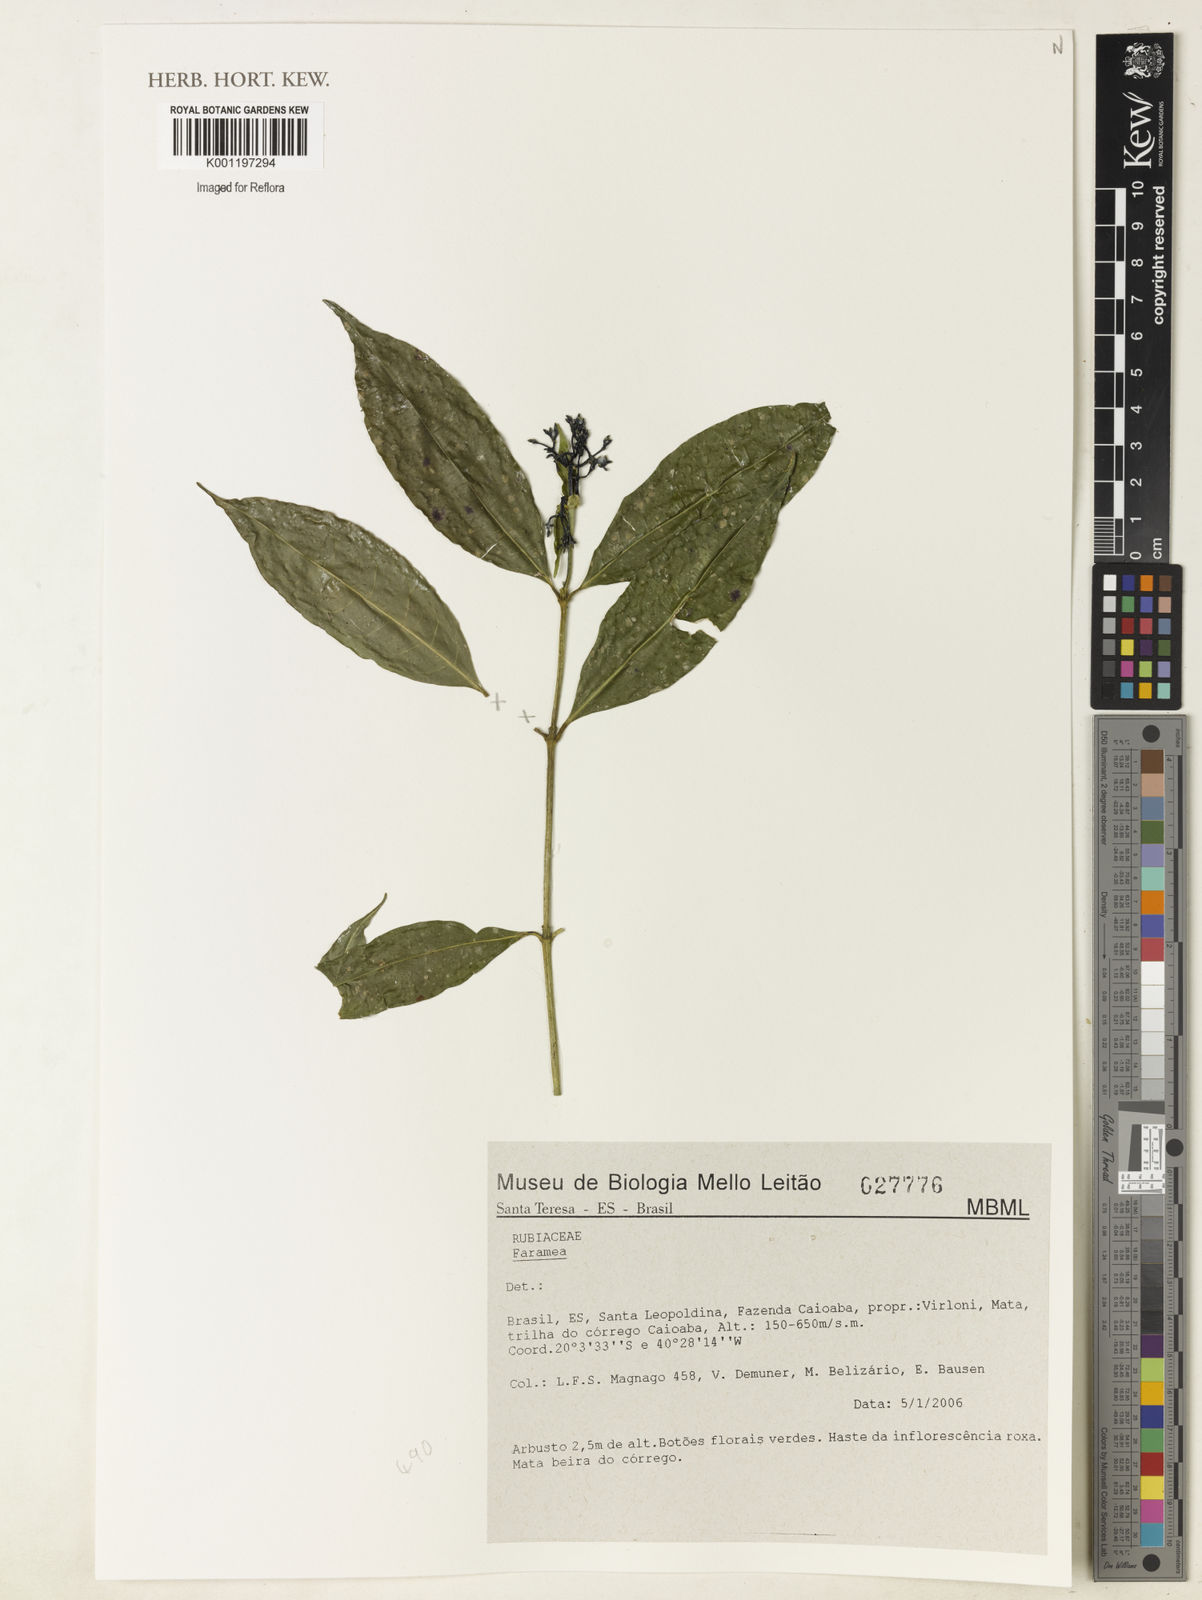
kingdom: Plantae
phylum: Tracheophyta
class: Magnoliopsida
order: Gentianales
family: Rubiaceae
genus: Faramea
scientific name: Faramea
